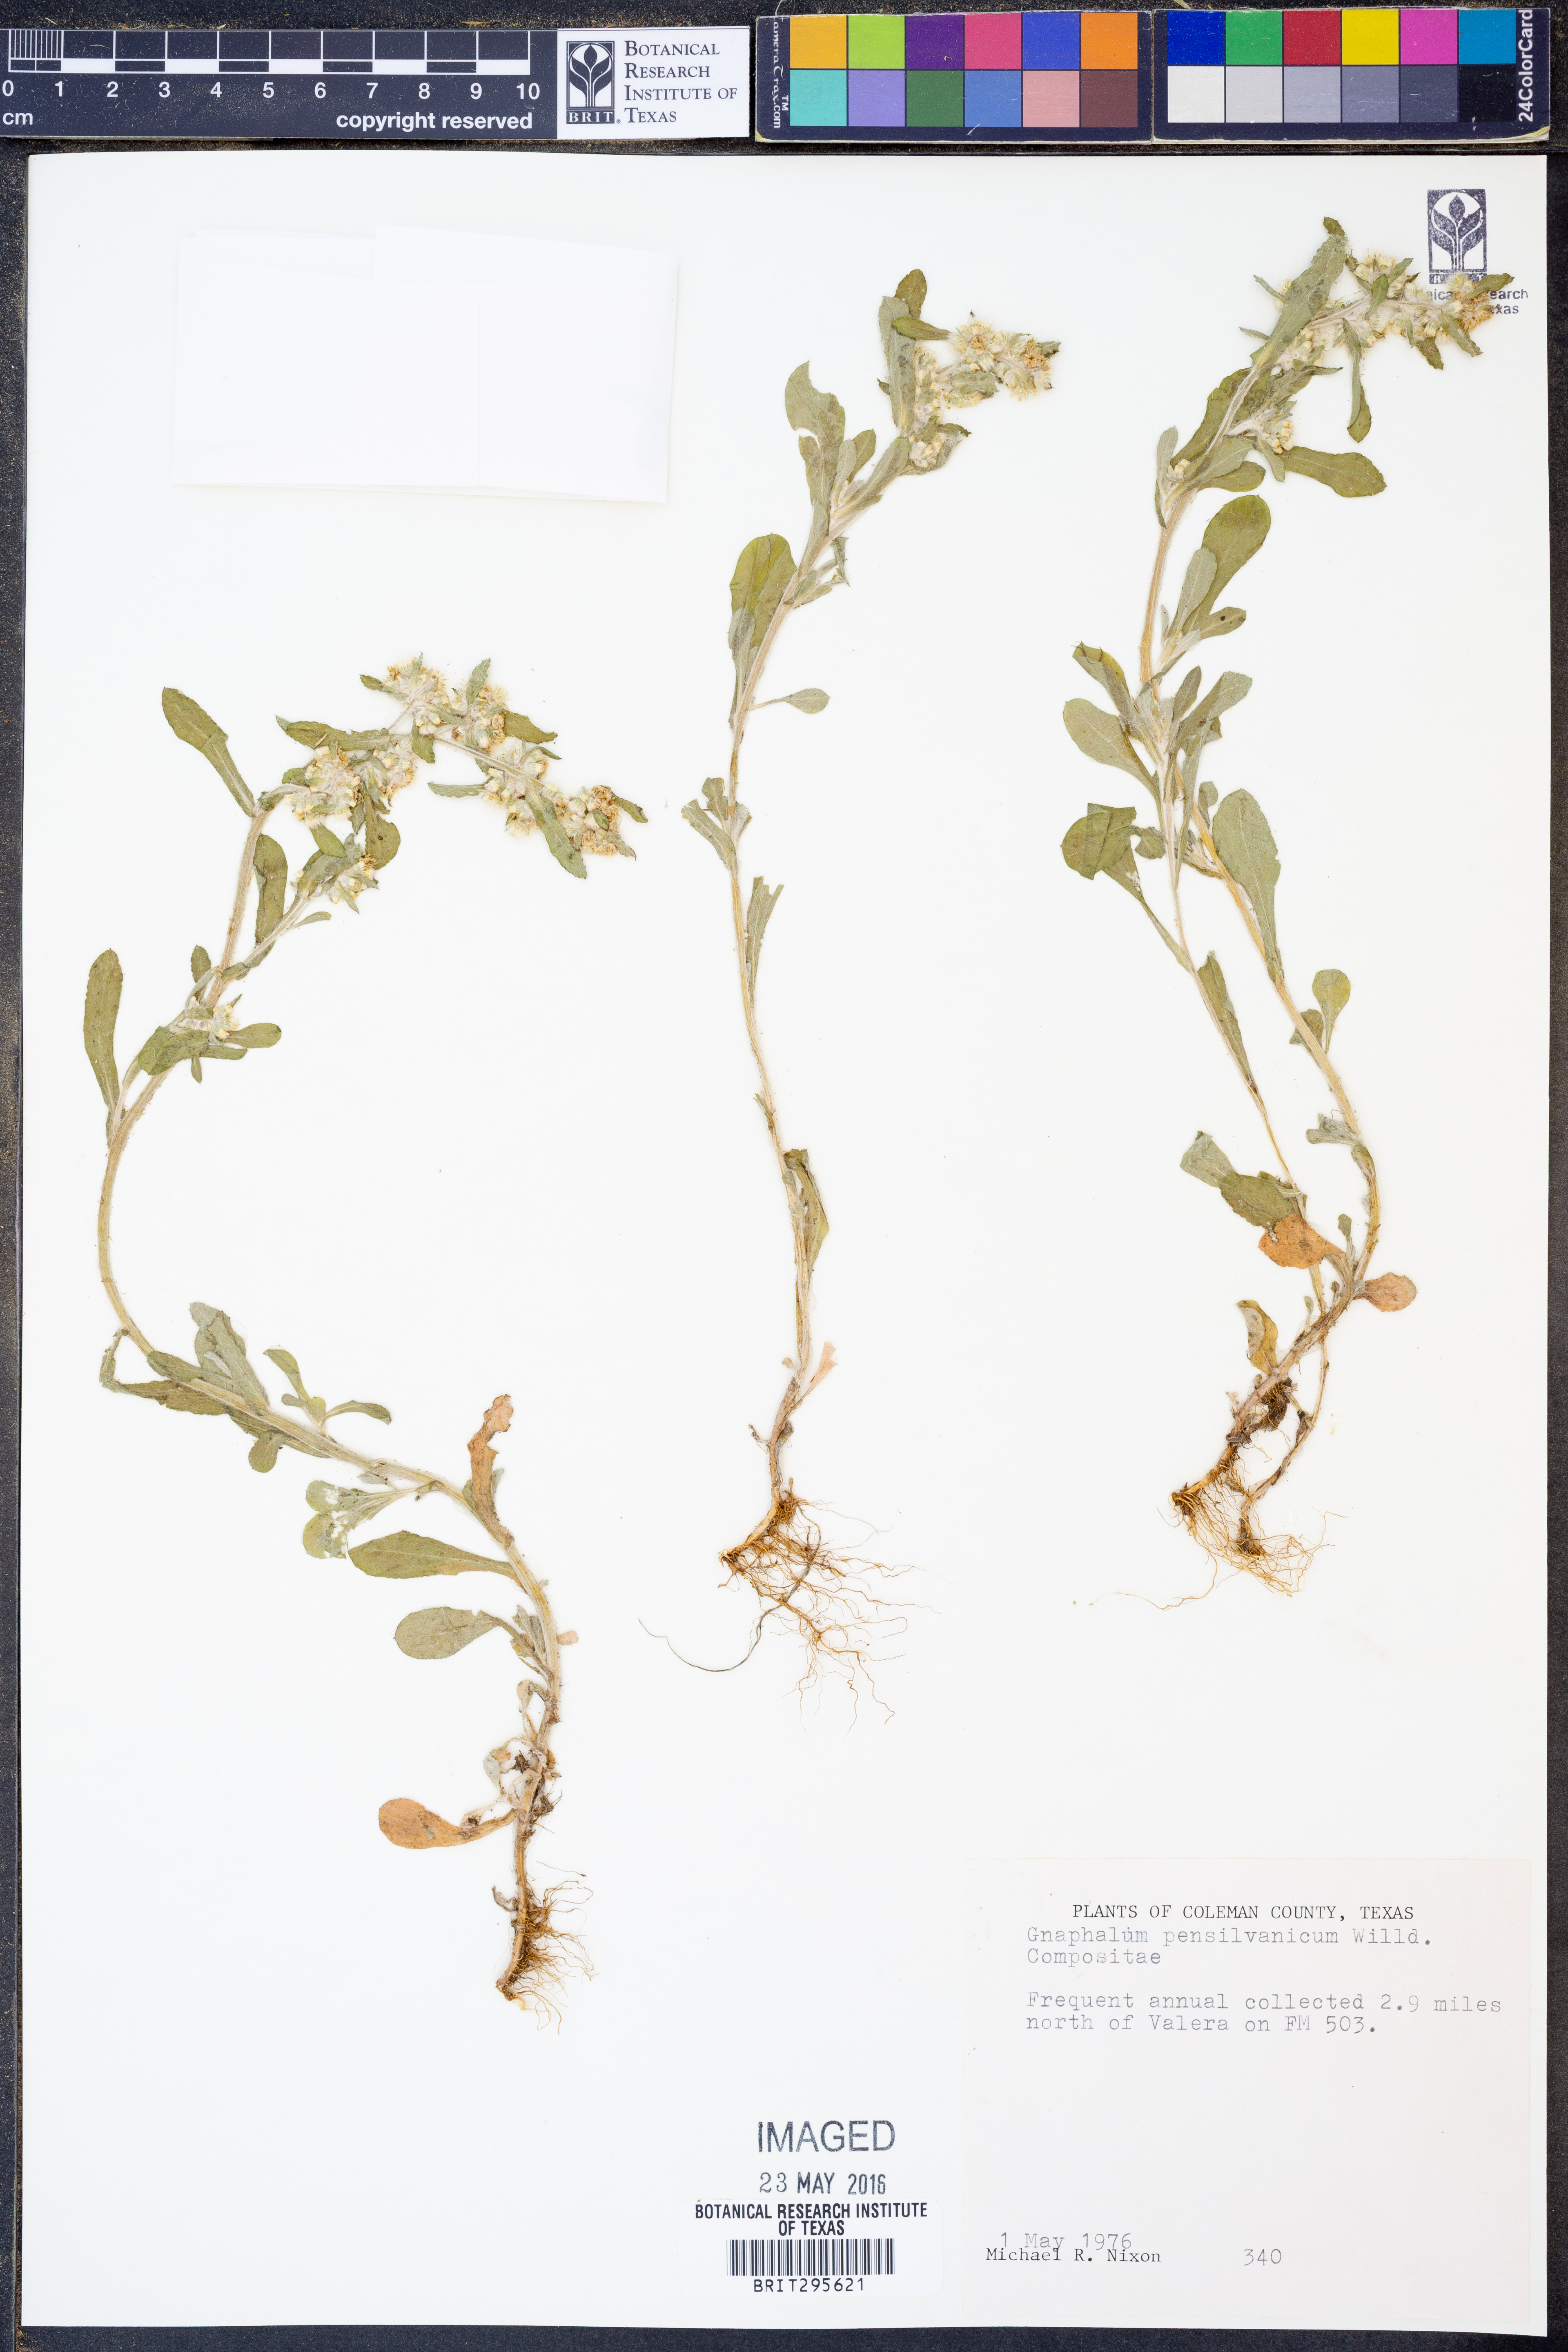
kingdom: Plantae
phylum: Tracheophyta
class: Magnoliopsida
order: Asterales
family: Asteraceae
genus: Gamochaeta
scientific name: Gamochaeta pensylvanica
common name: Pennsylvania everlasting
